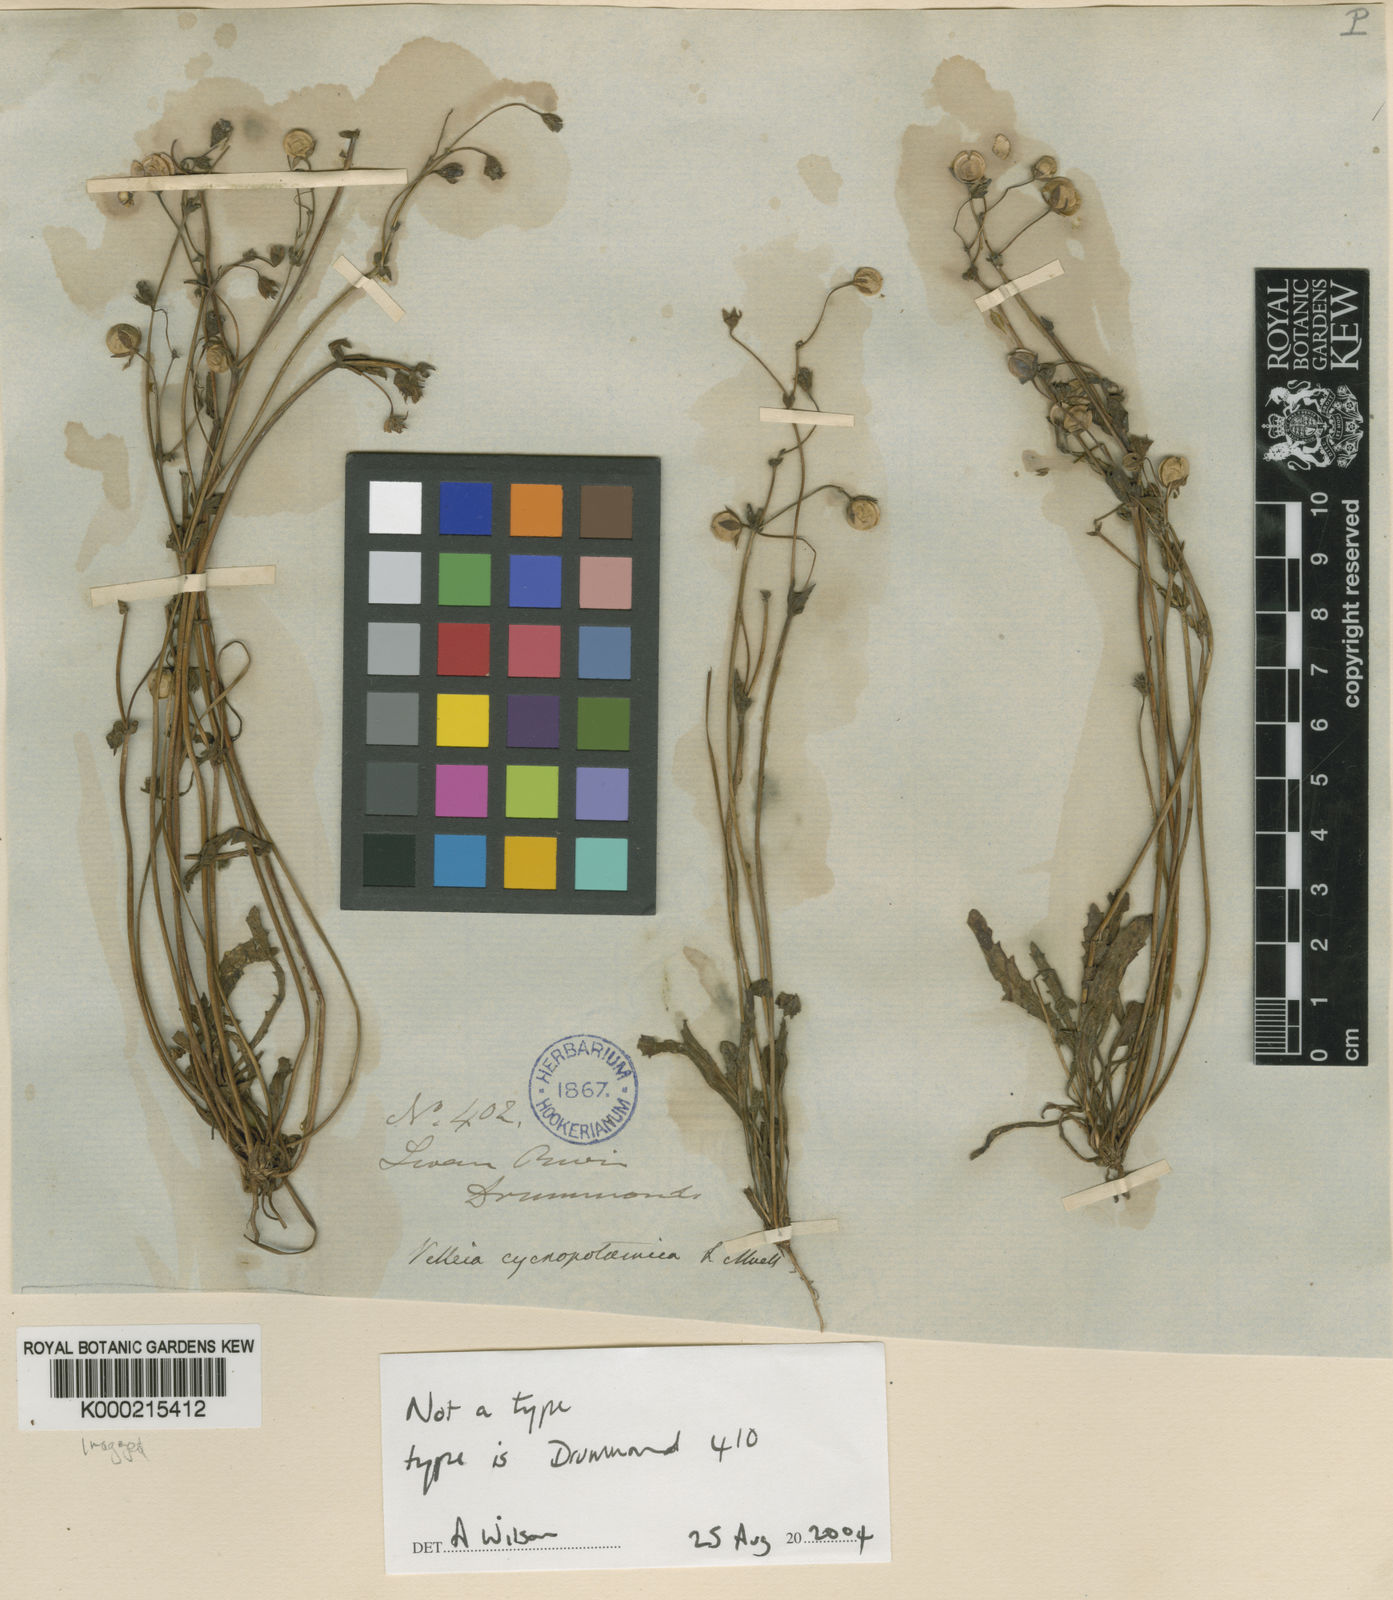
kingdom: Plantae
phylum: Tracheophyta
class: Magnoliopsida
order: Asterales
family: Goodeniaceae
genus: Goodenia
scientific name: Goodenia cycnopotamica
